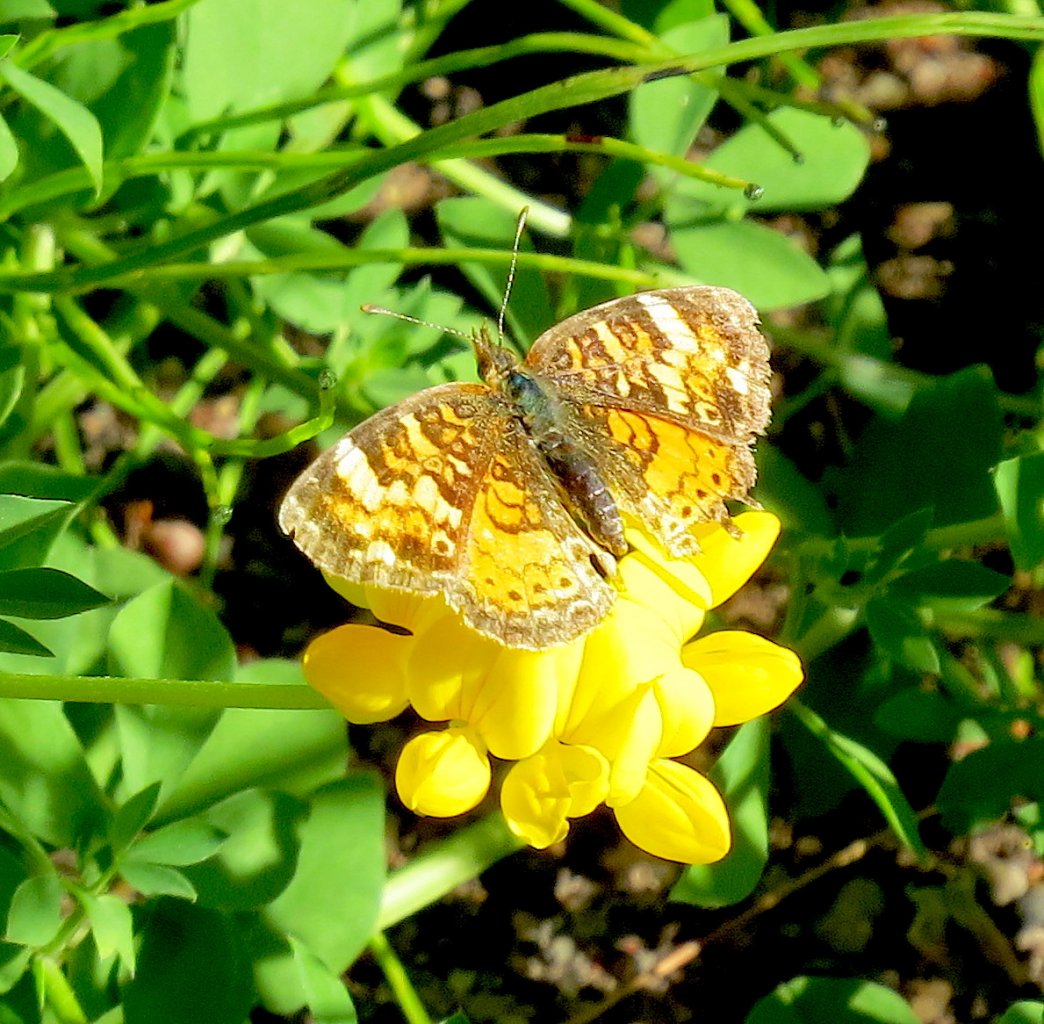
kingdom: Animalia
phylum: Arthropoda
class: Insecta
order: Lepidoptera
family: Nymphalidae
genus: Phyciodes
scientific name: Phyciodes tharos
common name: Northern Crescent
